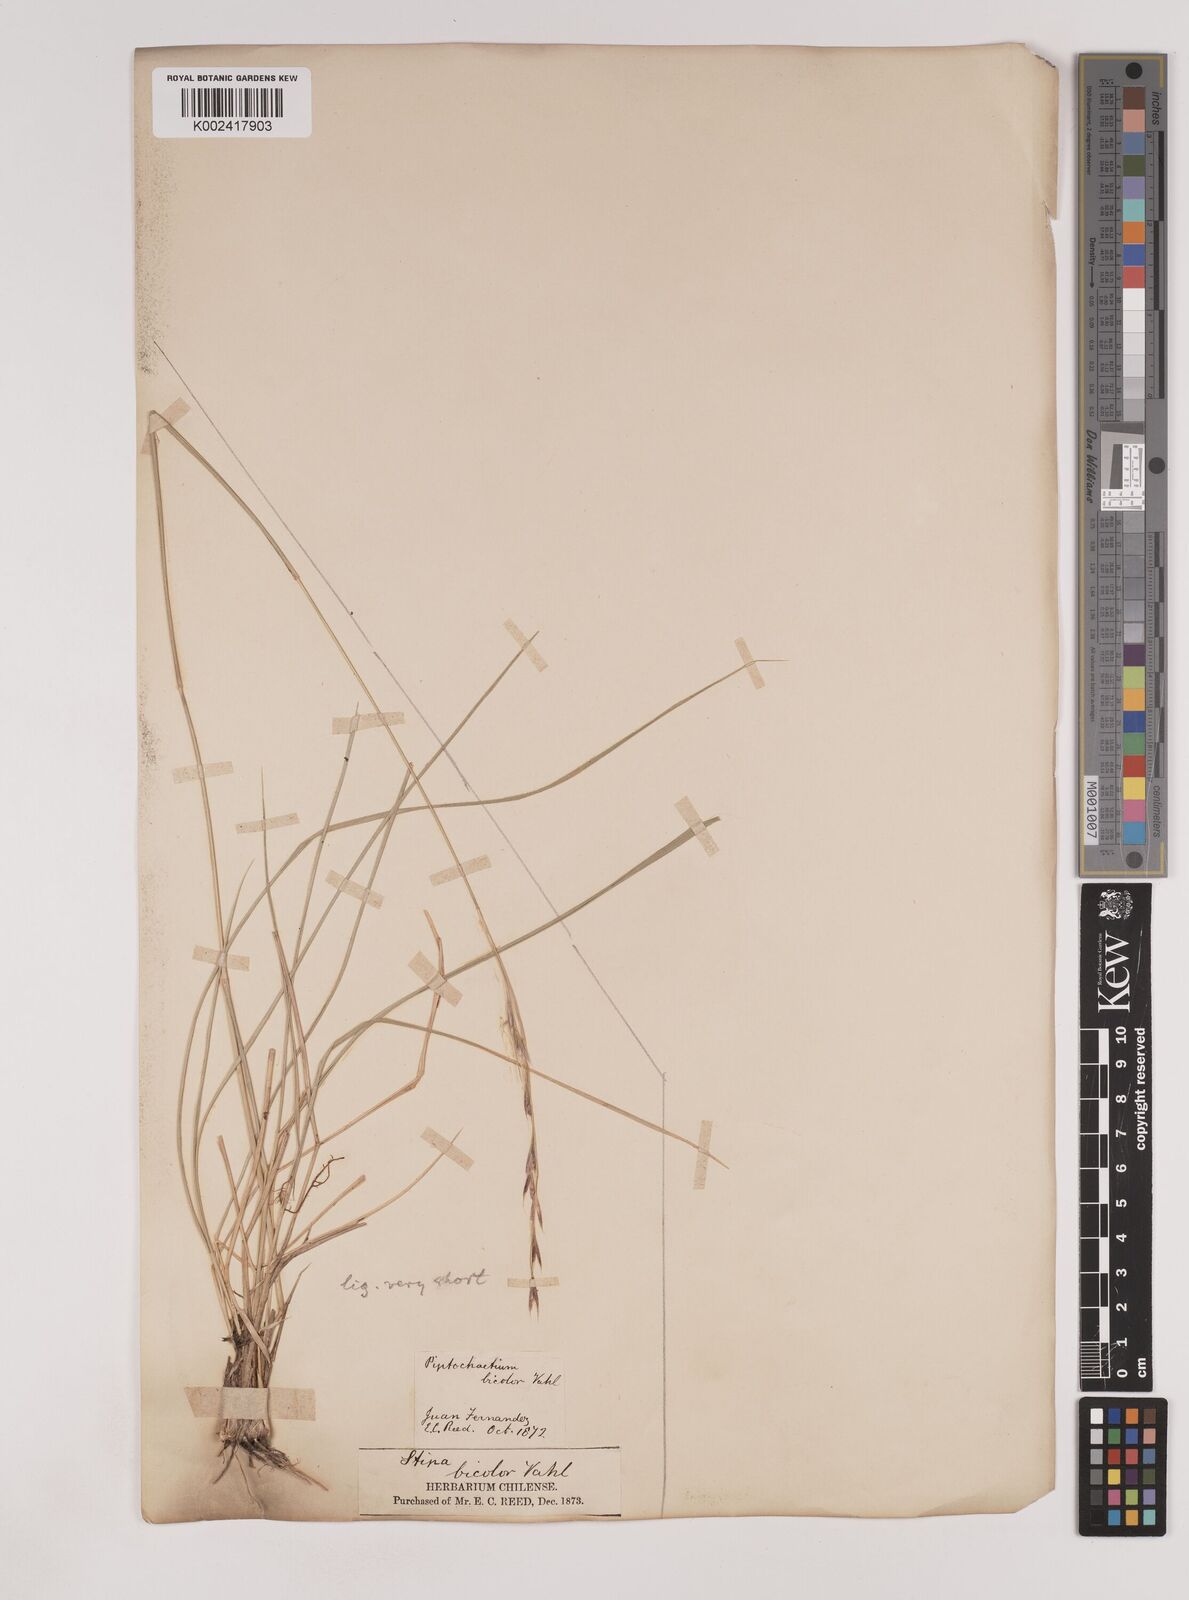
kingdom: Plantae
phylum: Tracheophyta
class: Liliopsida
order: Poales
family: Poaceae
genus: Nassella
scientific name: Nassella neesiana
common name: American needle-grass
